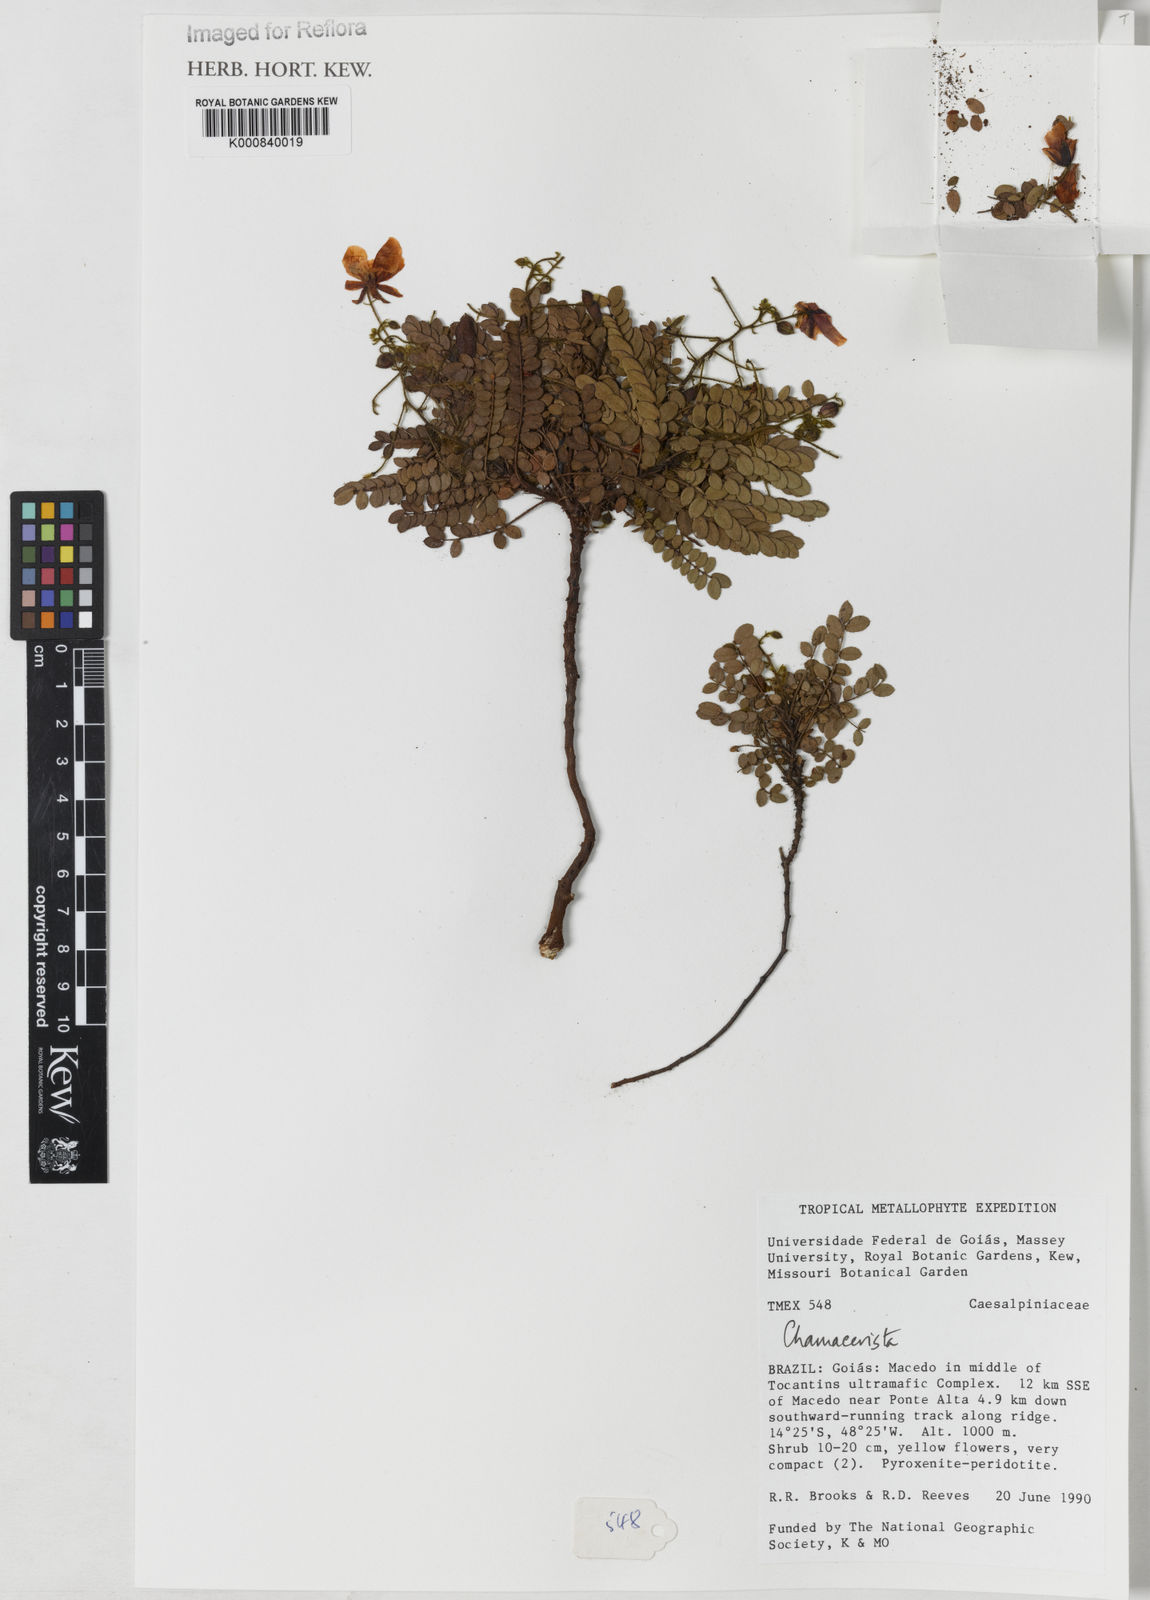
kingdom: Plantae
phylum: Tracheophyta
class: Magnoliopsida
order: Fabales
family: Fabaceae
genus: Chamaecrista
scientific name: Chamaecrista nanodes
